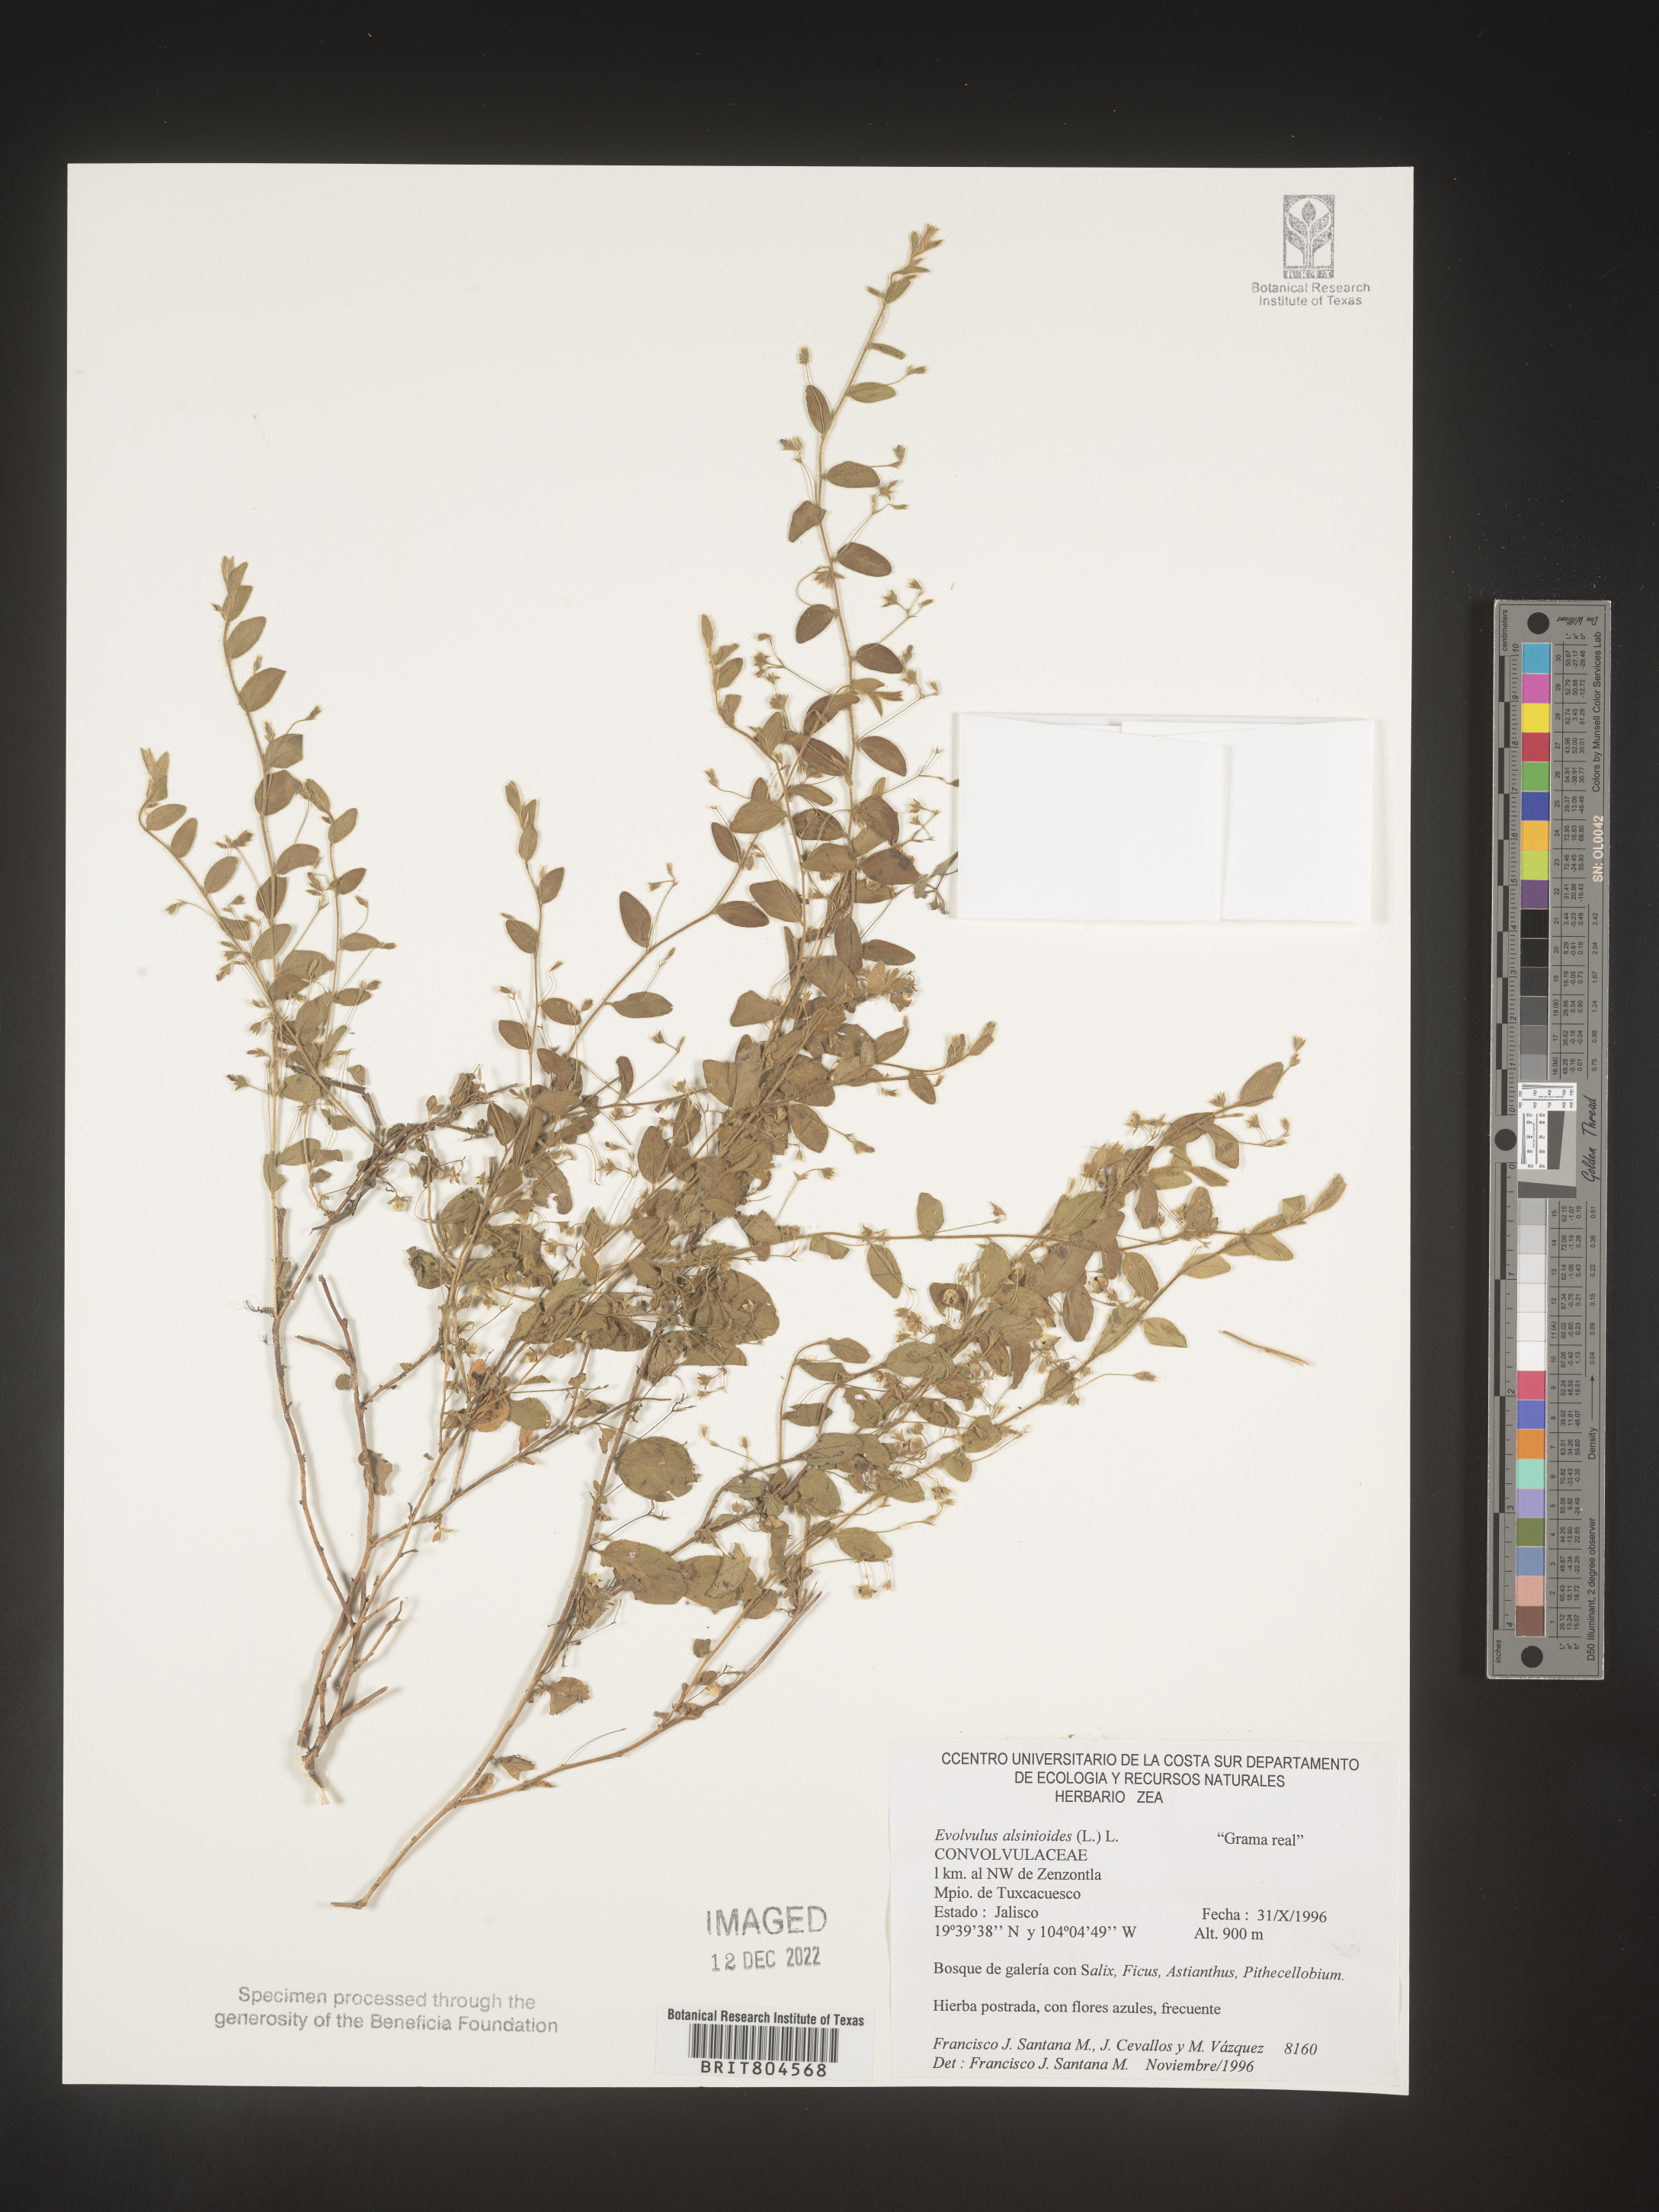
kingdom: Plantae
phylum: Tracheophyta
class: Magnoliopsida
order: Solanales
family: Convolvulaceae
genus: Evolvulus
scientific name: Evolvulus
